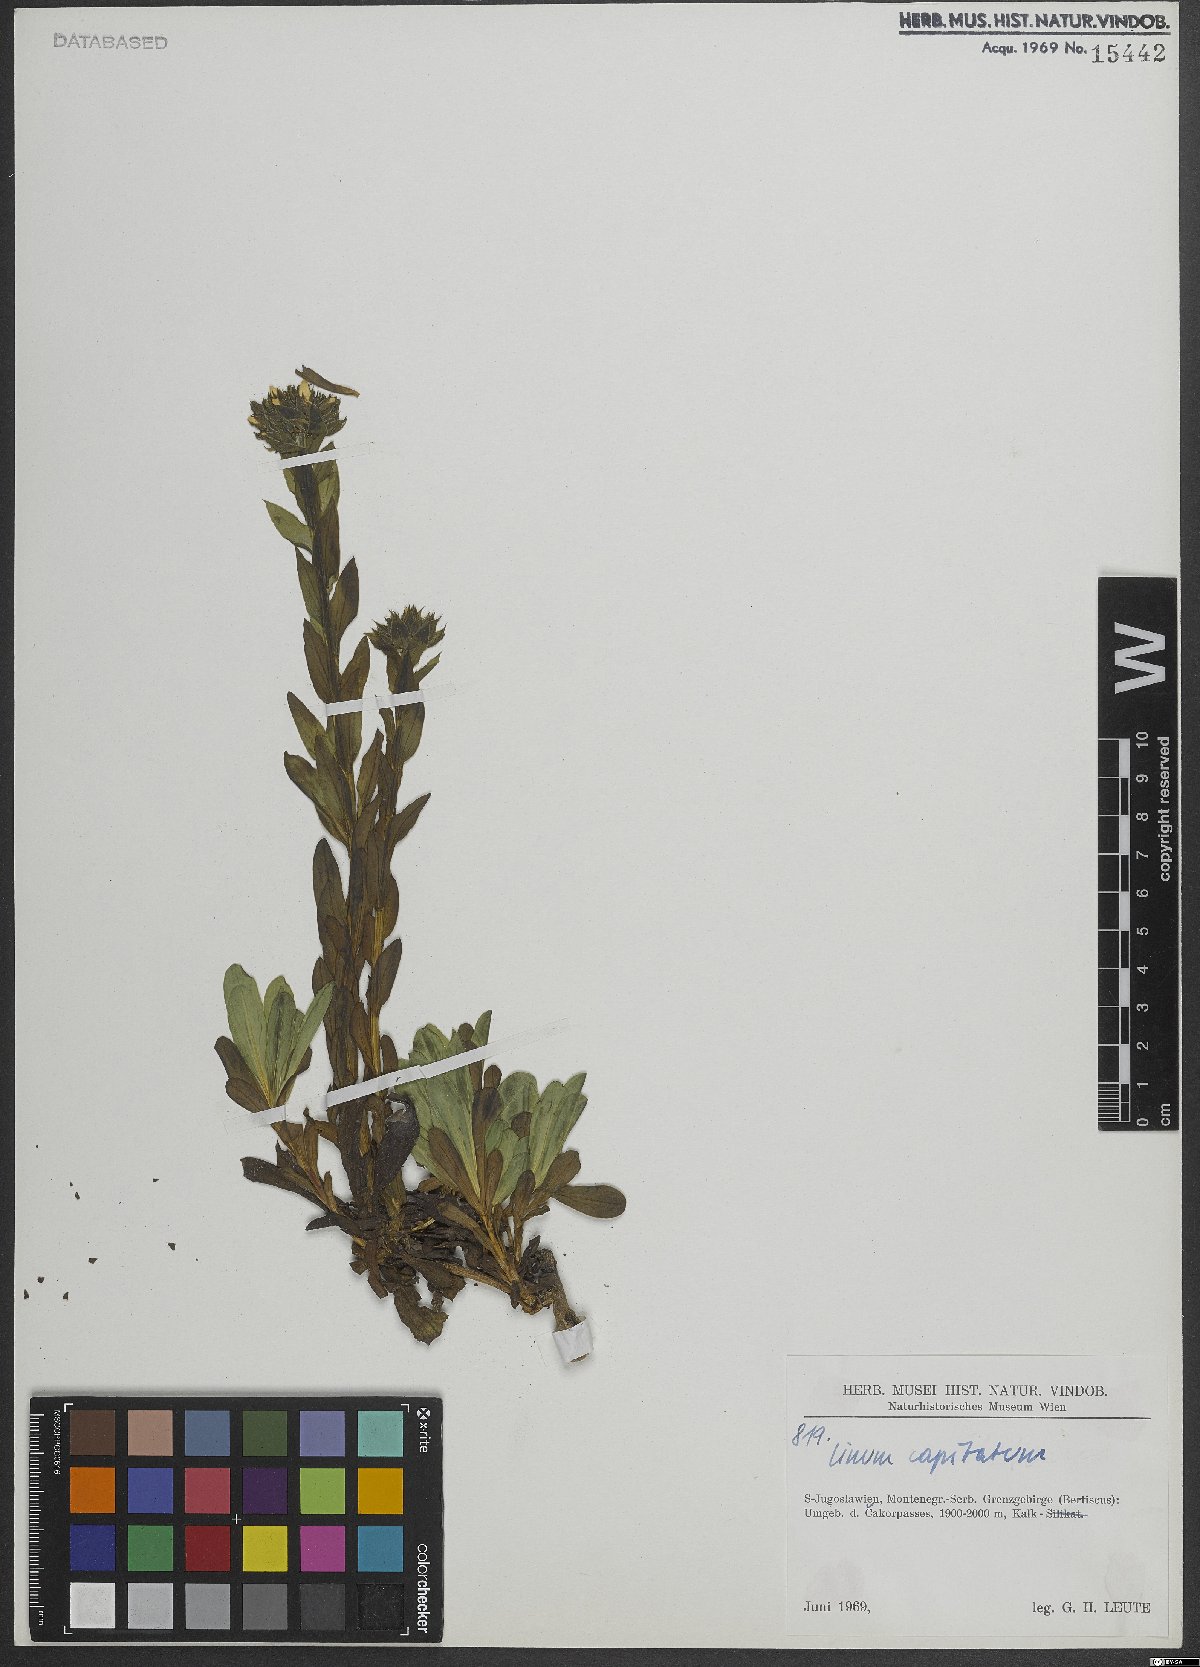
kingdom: Plantae
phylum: Tracheophyta
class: Magnoliopsida
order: Malpighiales
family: Linaceae
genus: Linum
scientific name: Linum capitatum
